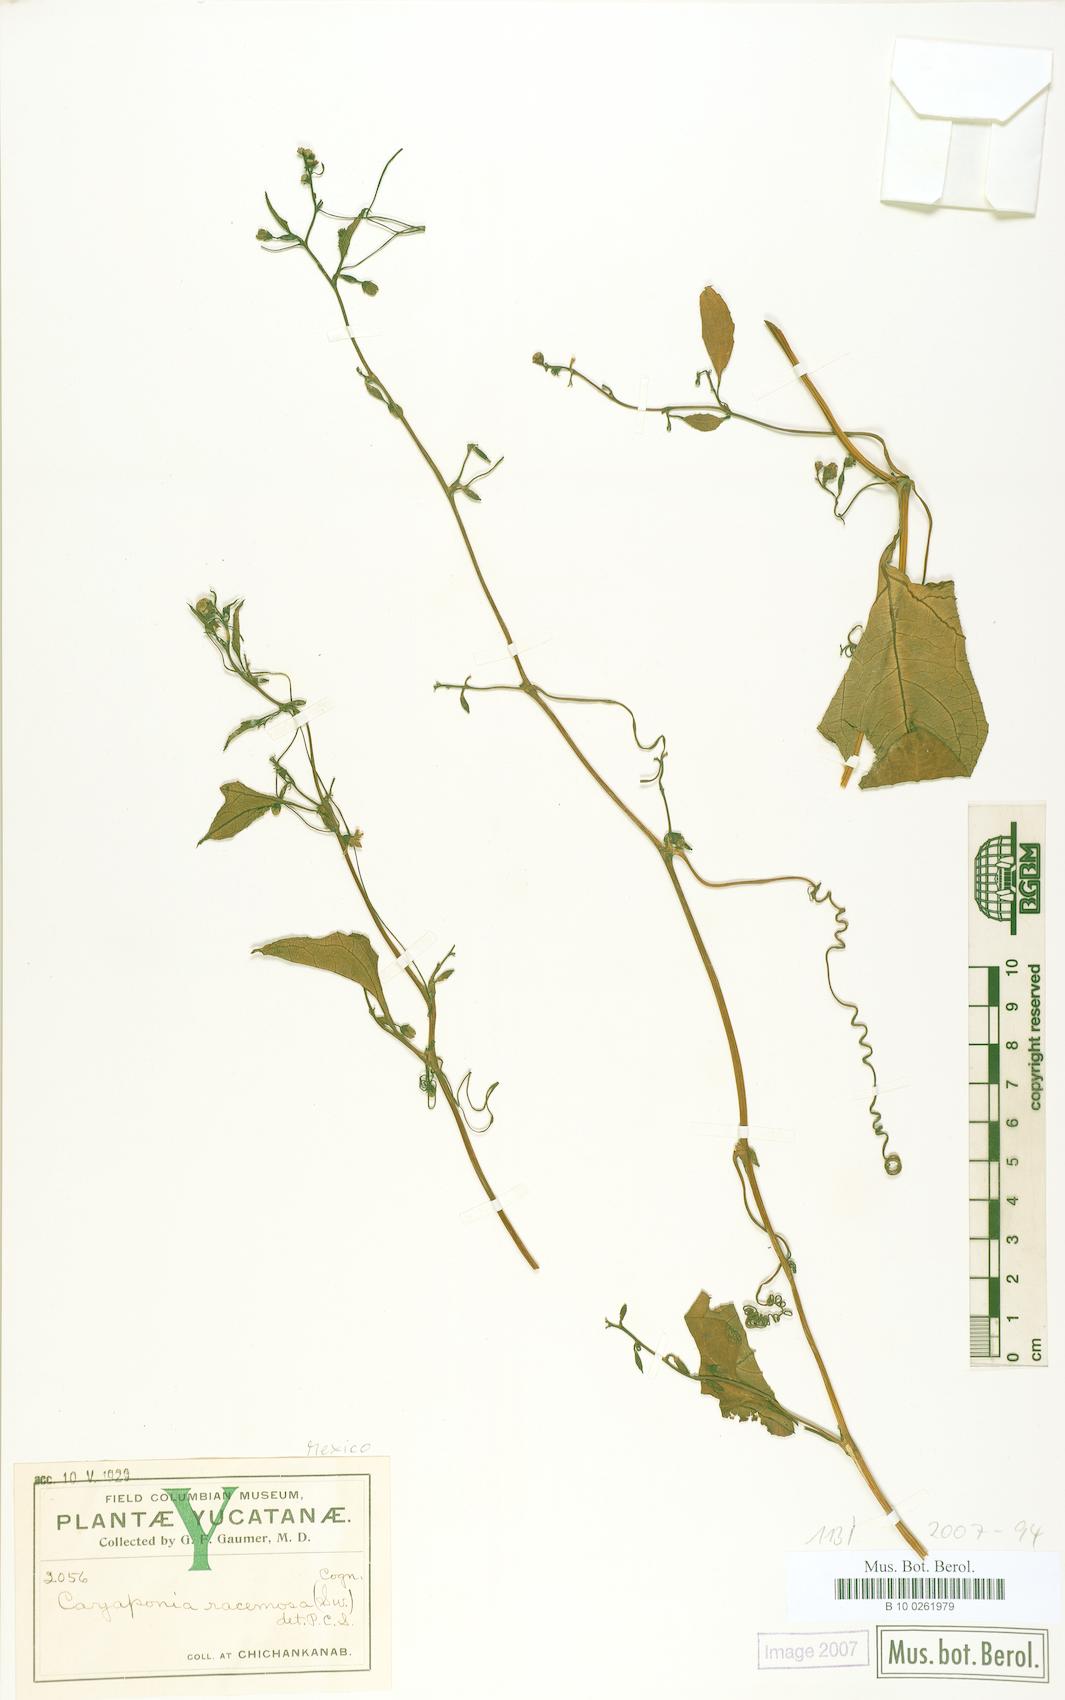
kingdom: Plantae
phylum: Tracheophyta
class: Magnoliopsida
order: Cucurbitales
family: Cucurbitaceae
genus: Cayaponia
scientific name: Cayaponia podantha
